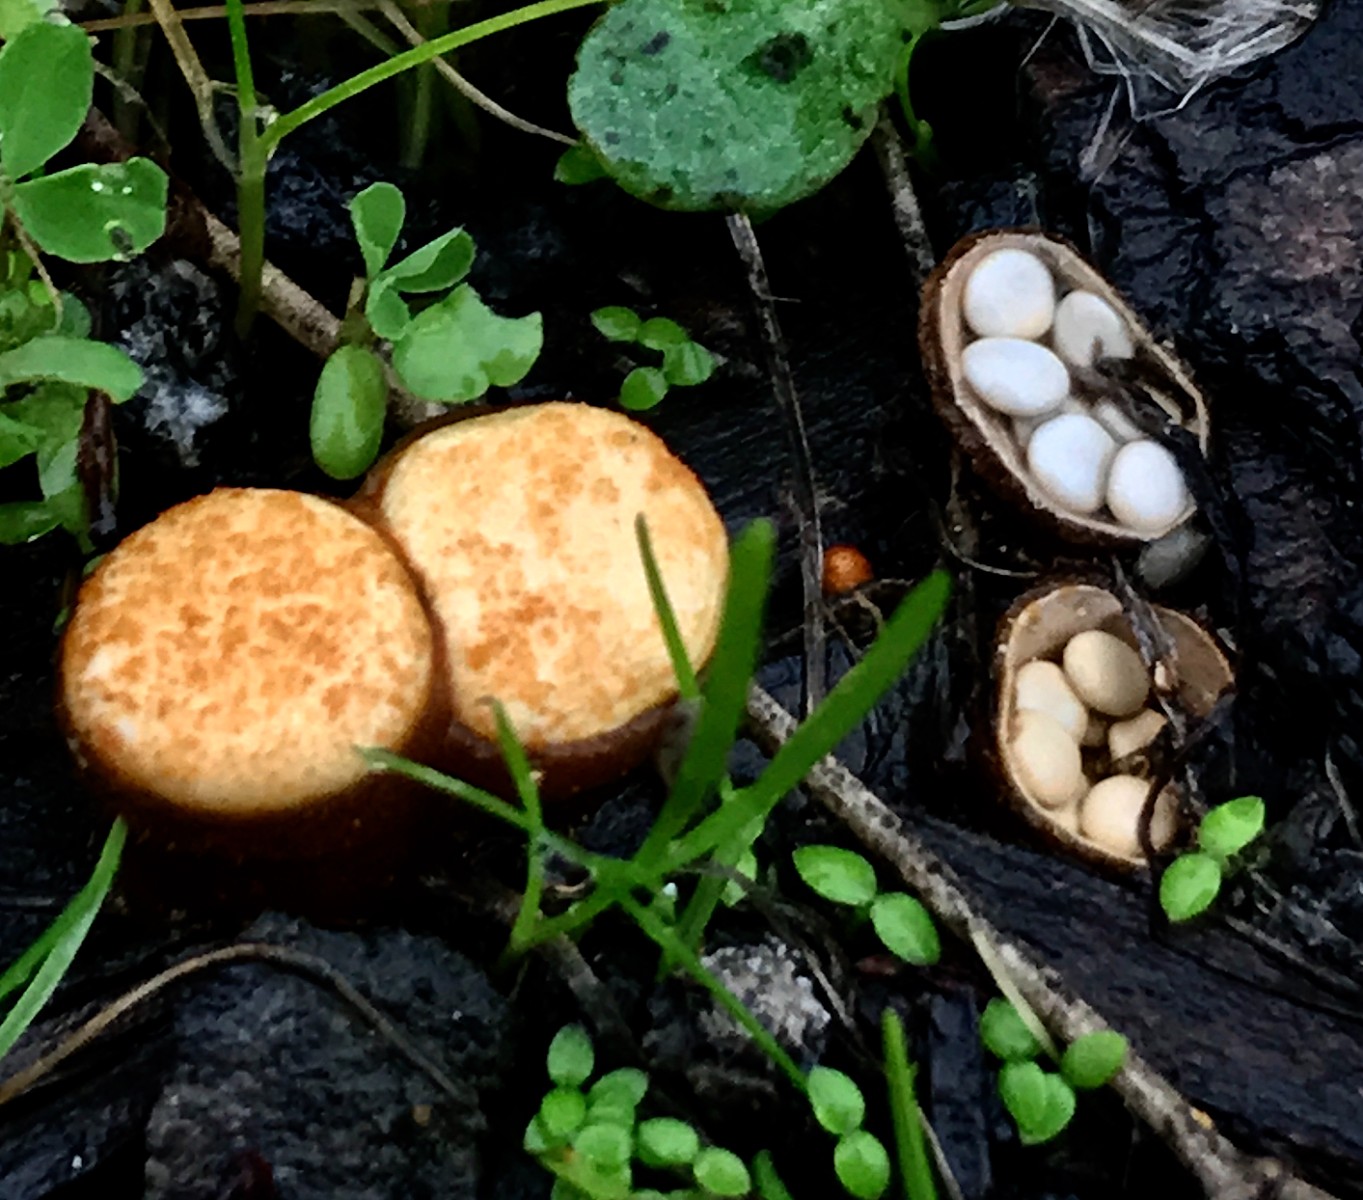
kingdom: Fungi
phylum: Basidiomycota
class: Agaricomycetes
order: Agaricales
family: Nidulariaceae
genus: Crucibulum
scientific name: Crucibulum crucibuliforme
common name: krukkesvamp
